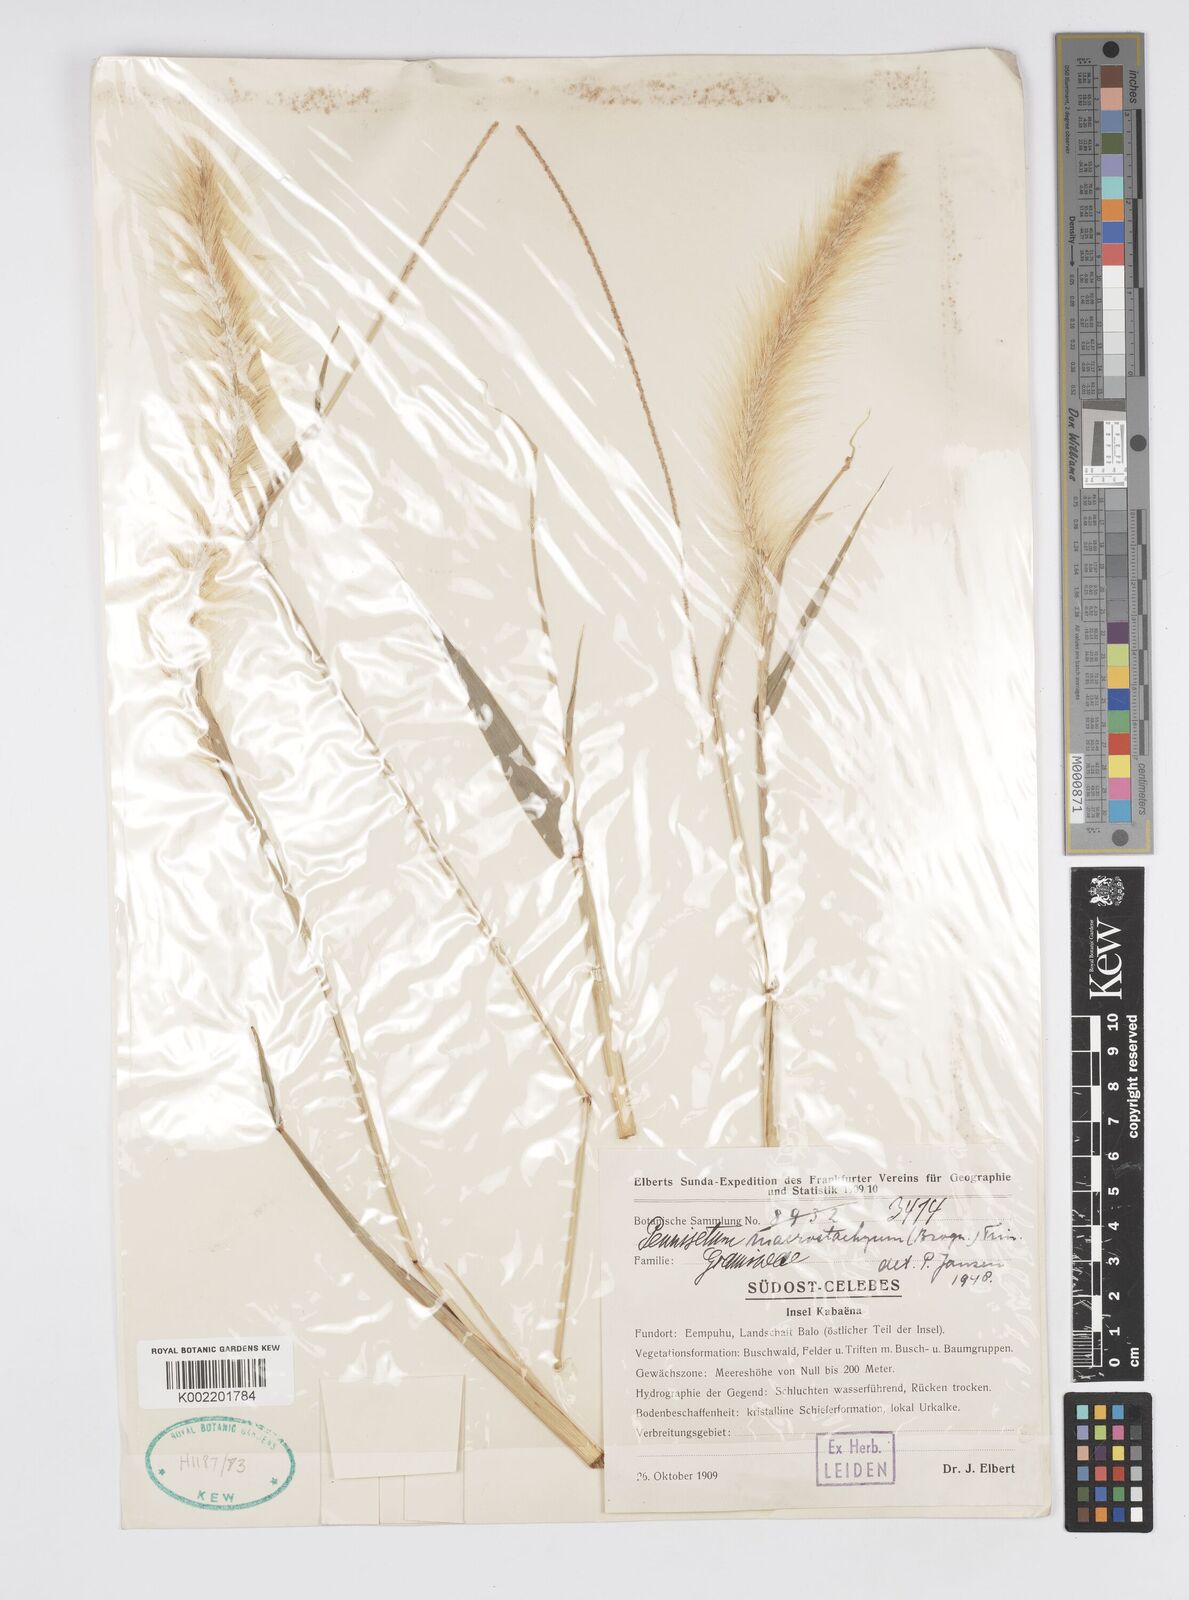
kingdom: Plantae
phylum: Tracheophyta
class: Liliopsida
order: Poales
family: Poaceae
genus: Cenchrus
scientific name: Cenchrus purpureus
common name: Elephant grass
